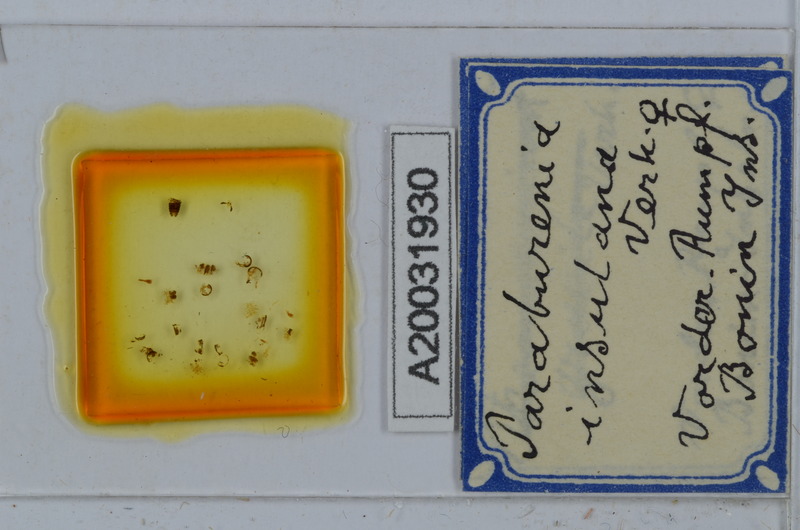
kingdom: Animalia
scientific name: Animalia
